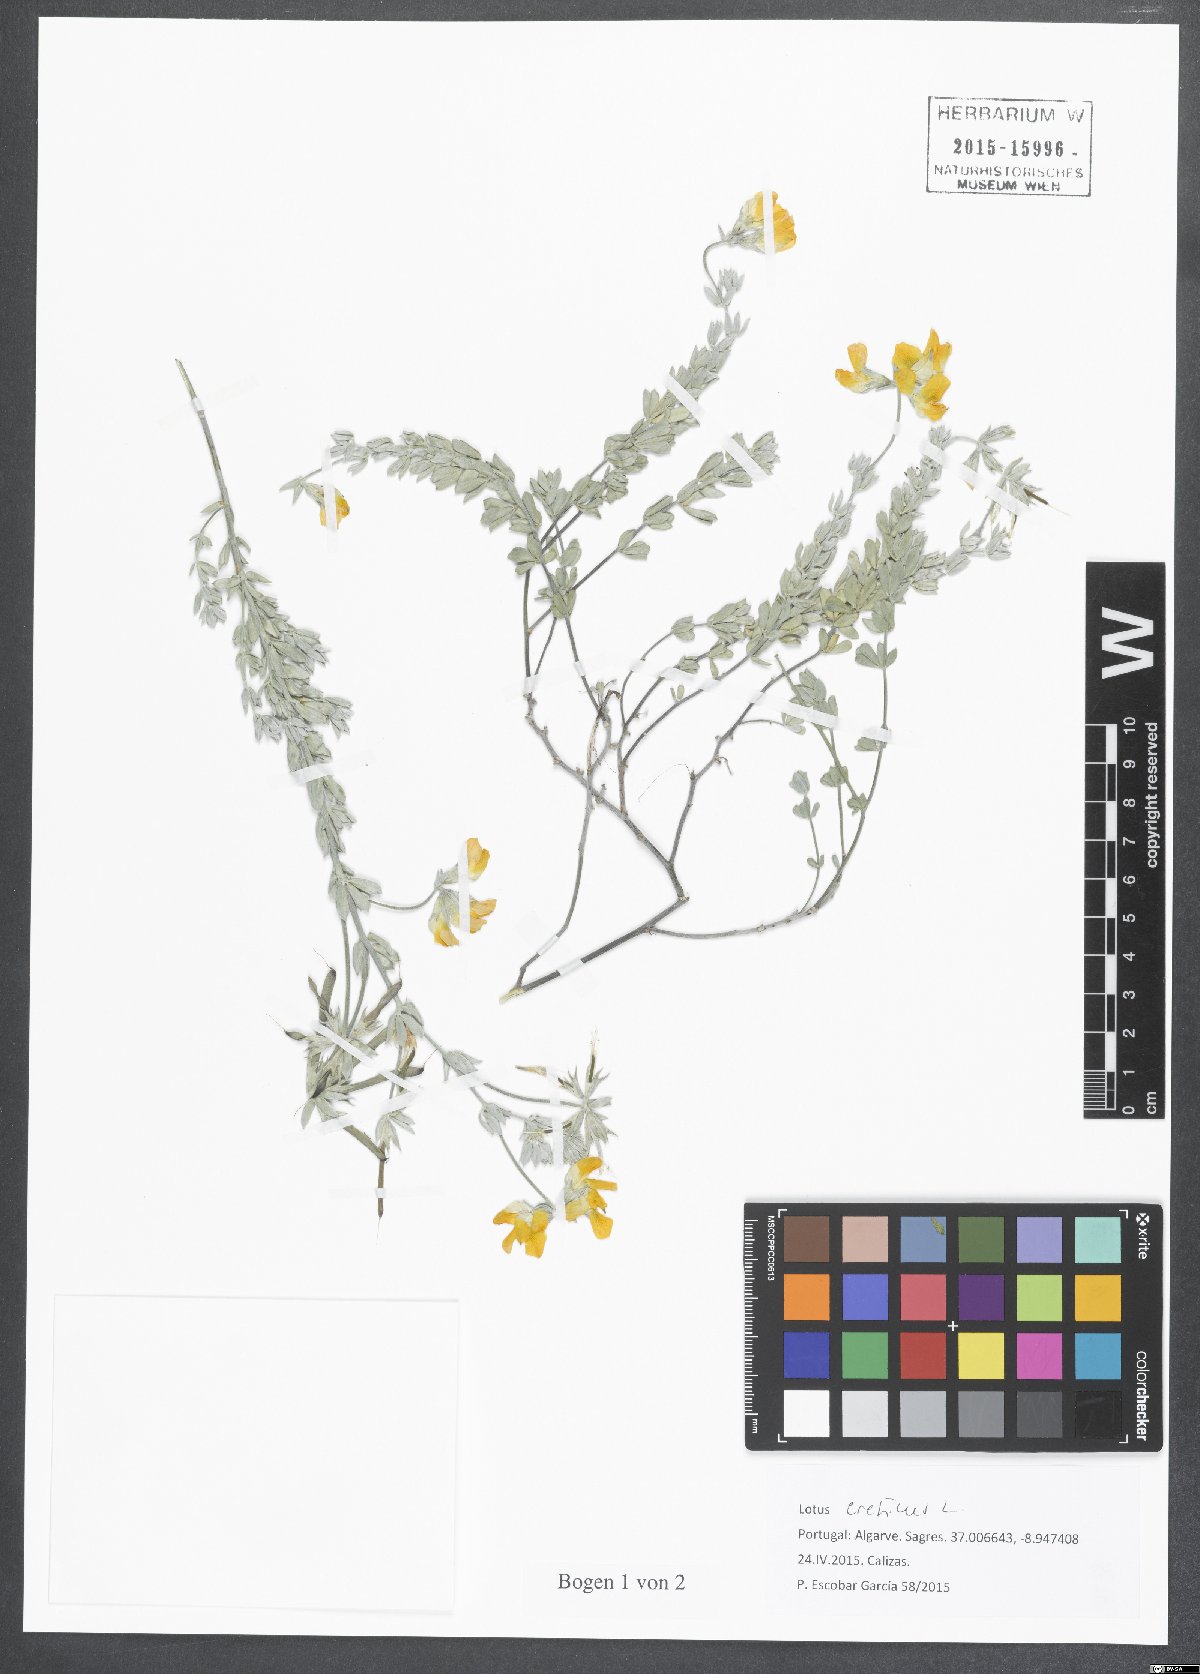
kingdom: Plantae
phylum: Tracheophyta
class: Magnoliopsida
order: Fabales
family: Fabaceae
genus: Lotus
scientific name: Lotus creticus
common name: Cretan bird's-foot trefoil
